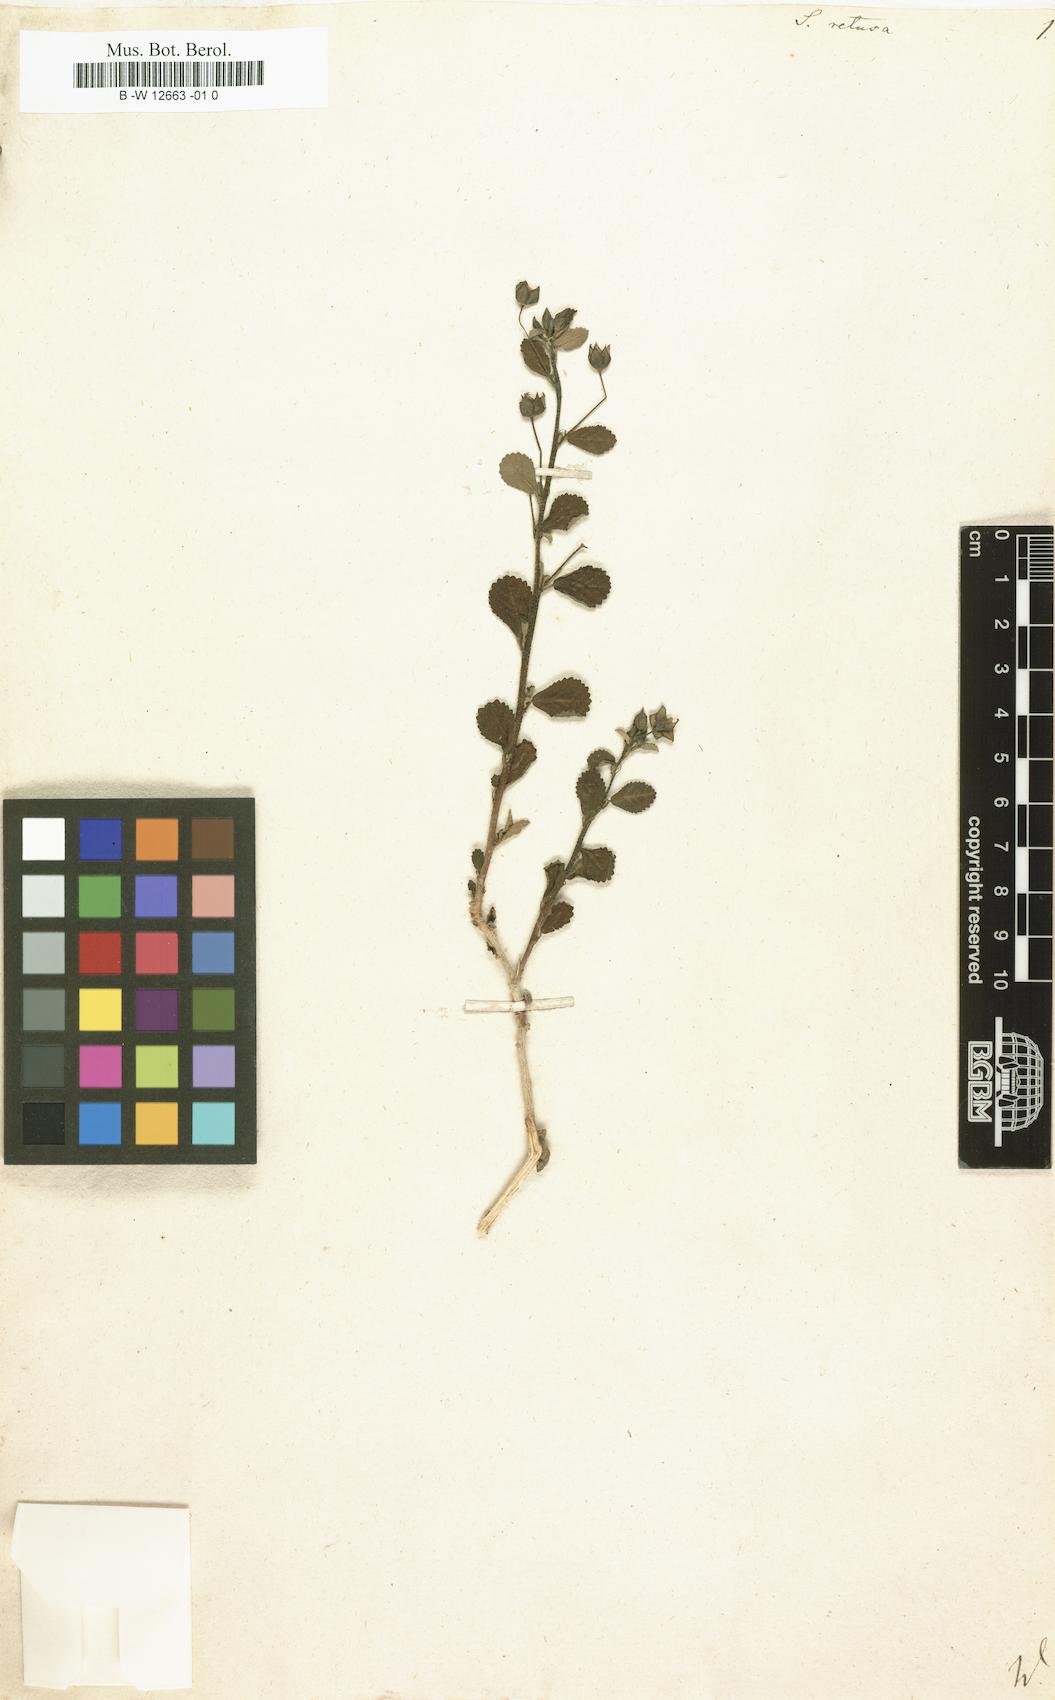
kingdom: Plantae
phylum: Tracheophyta
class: Magnoliopsida
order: Malvales
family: Malvaceae
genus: Sida
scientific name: Sida
